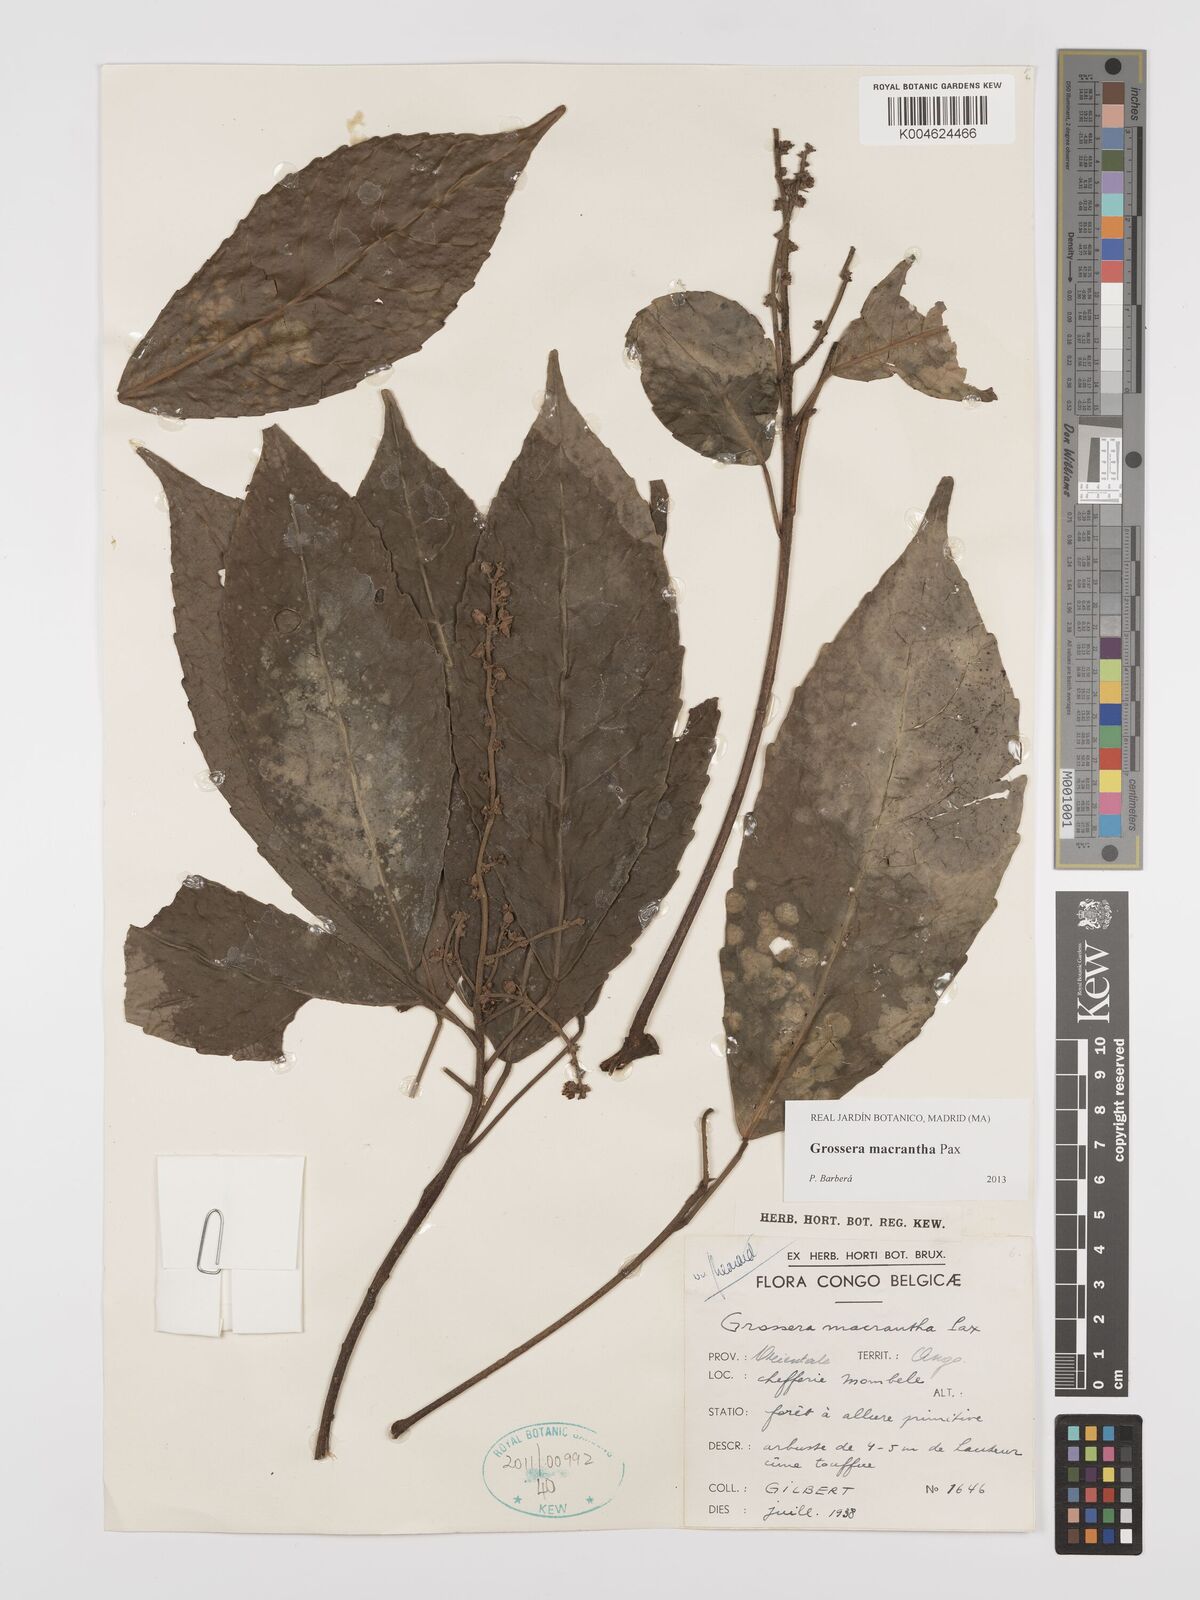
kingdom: Plantae
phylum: Tracheophyta
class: Magnoliopsida
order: Malpighiales
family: Euphorbiaceae
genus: Grossera
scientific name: Grossera macrantha
